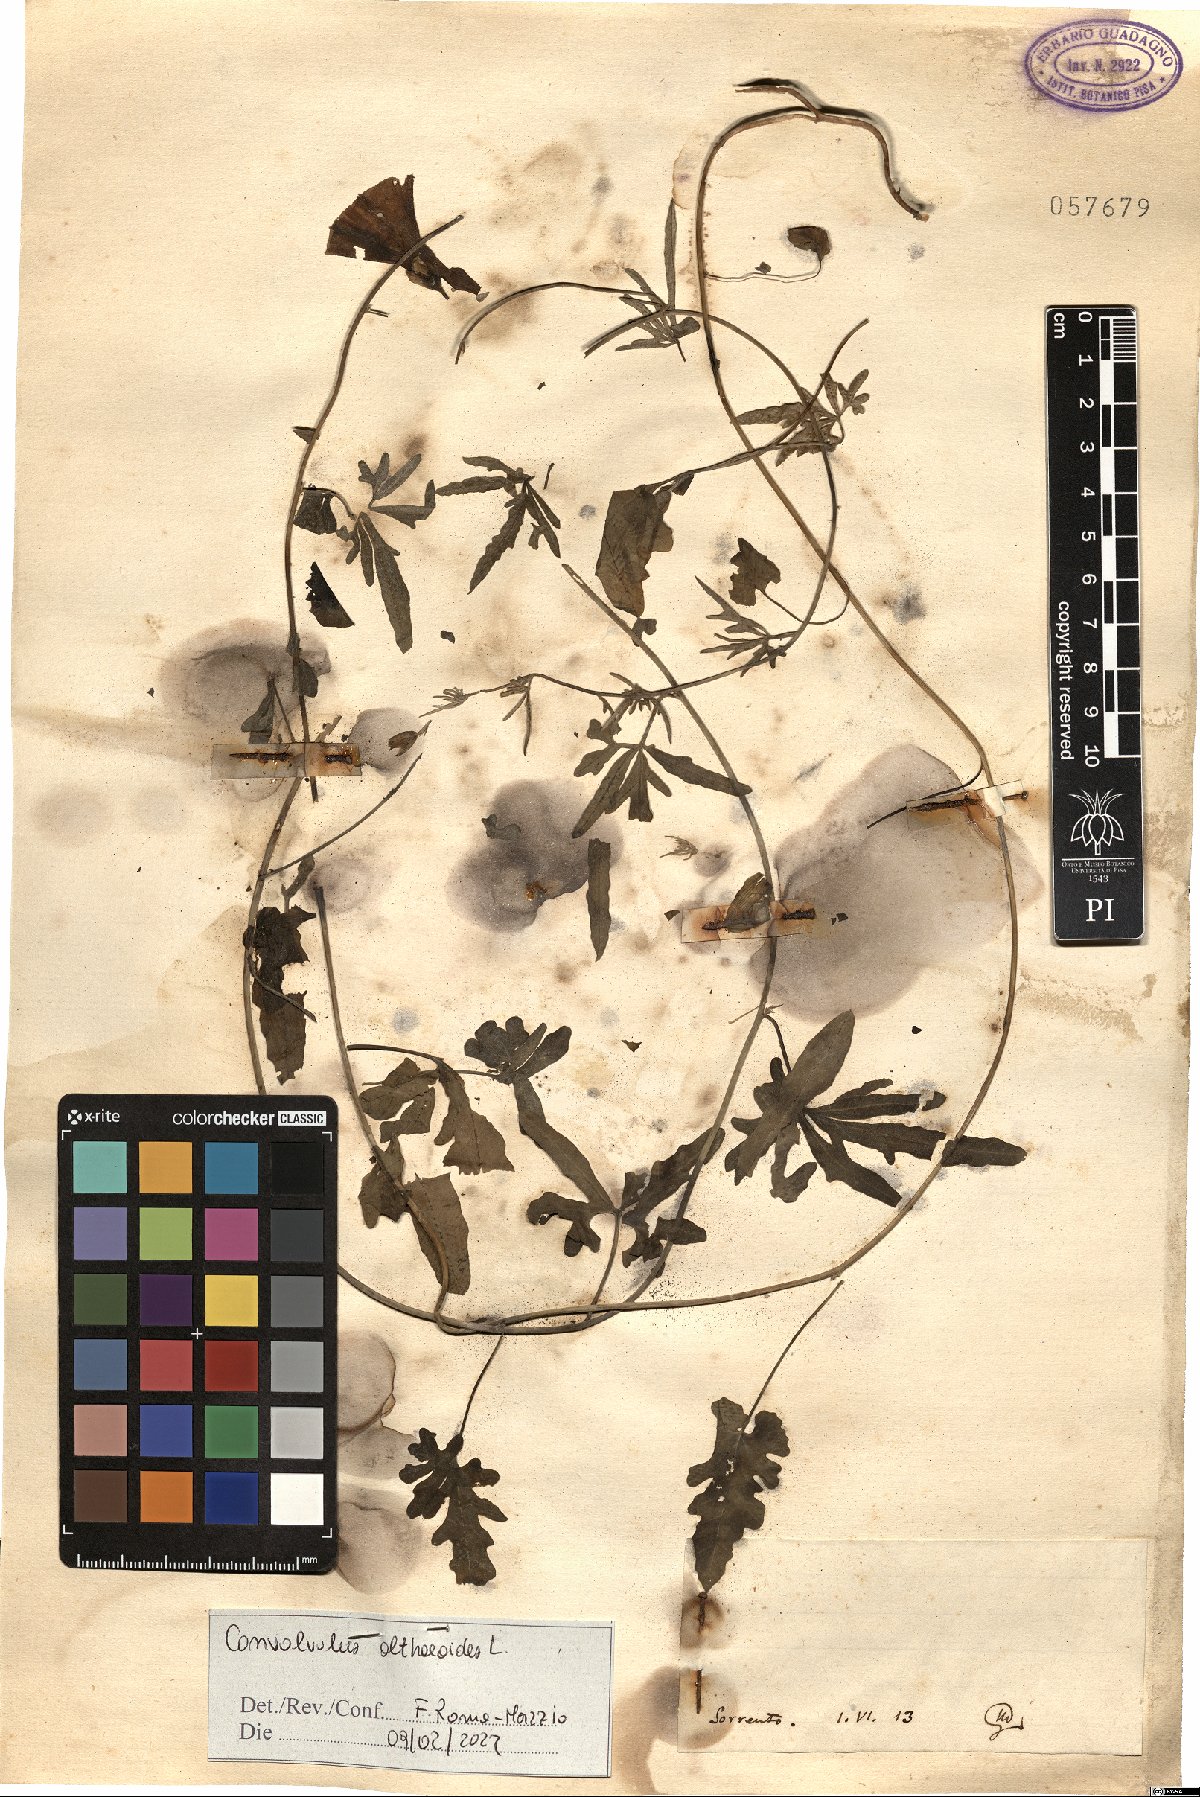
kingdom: Plantae
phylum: Tracheophyta
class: Magnoliopsida
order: Solanales
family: Convolvulaceae
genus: Convolvulus
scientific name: Convolvulus althaeoides
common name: Mallow bindweed
